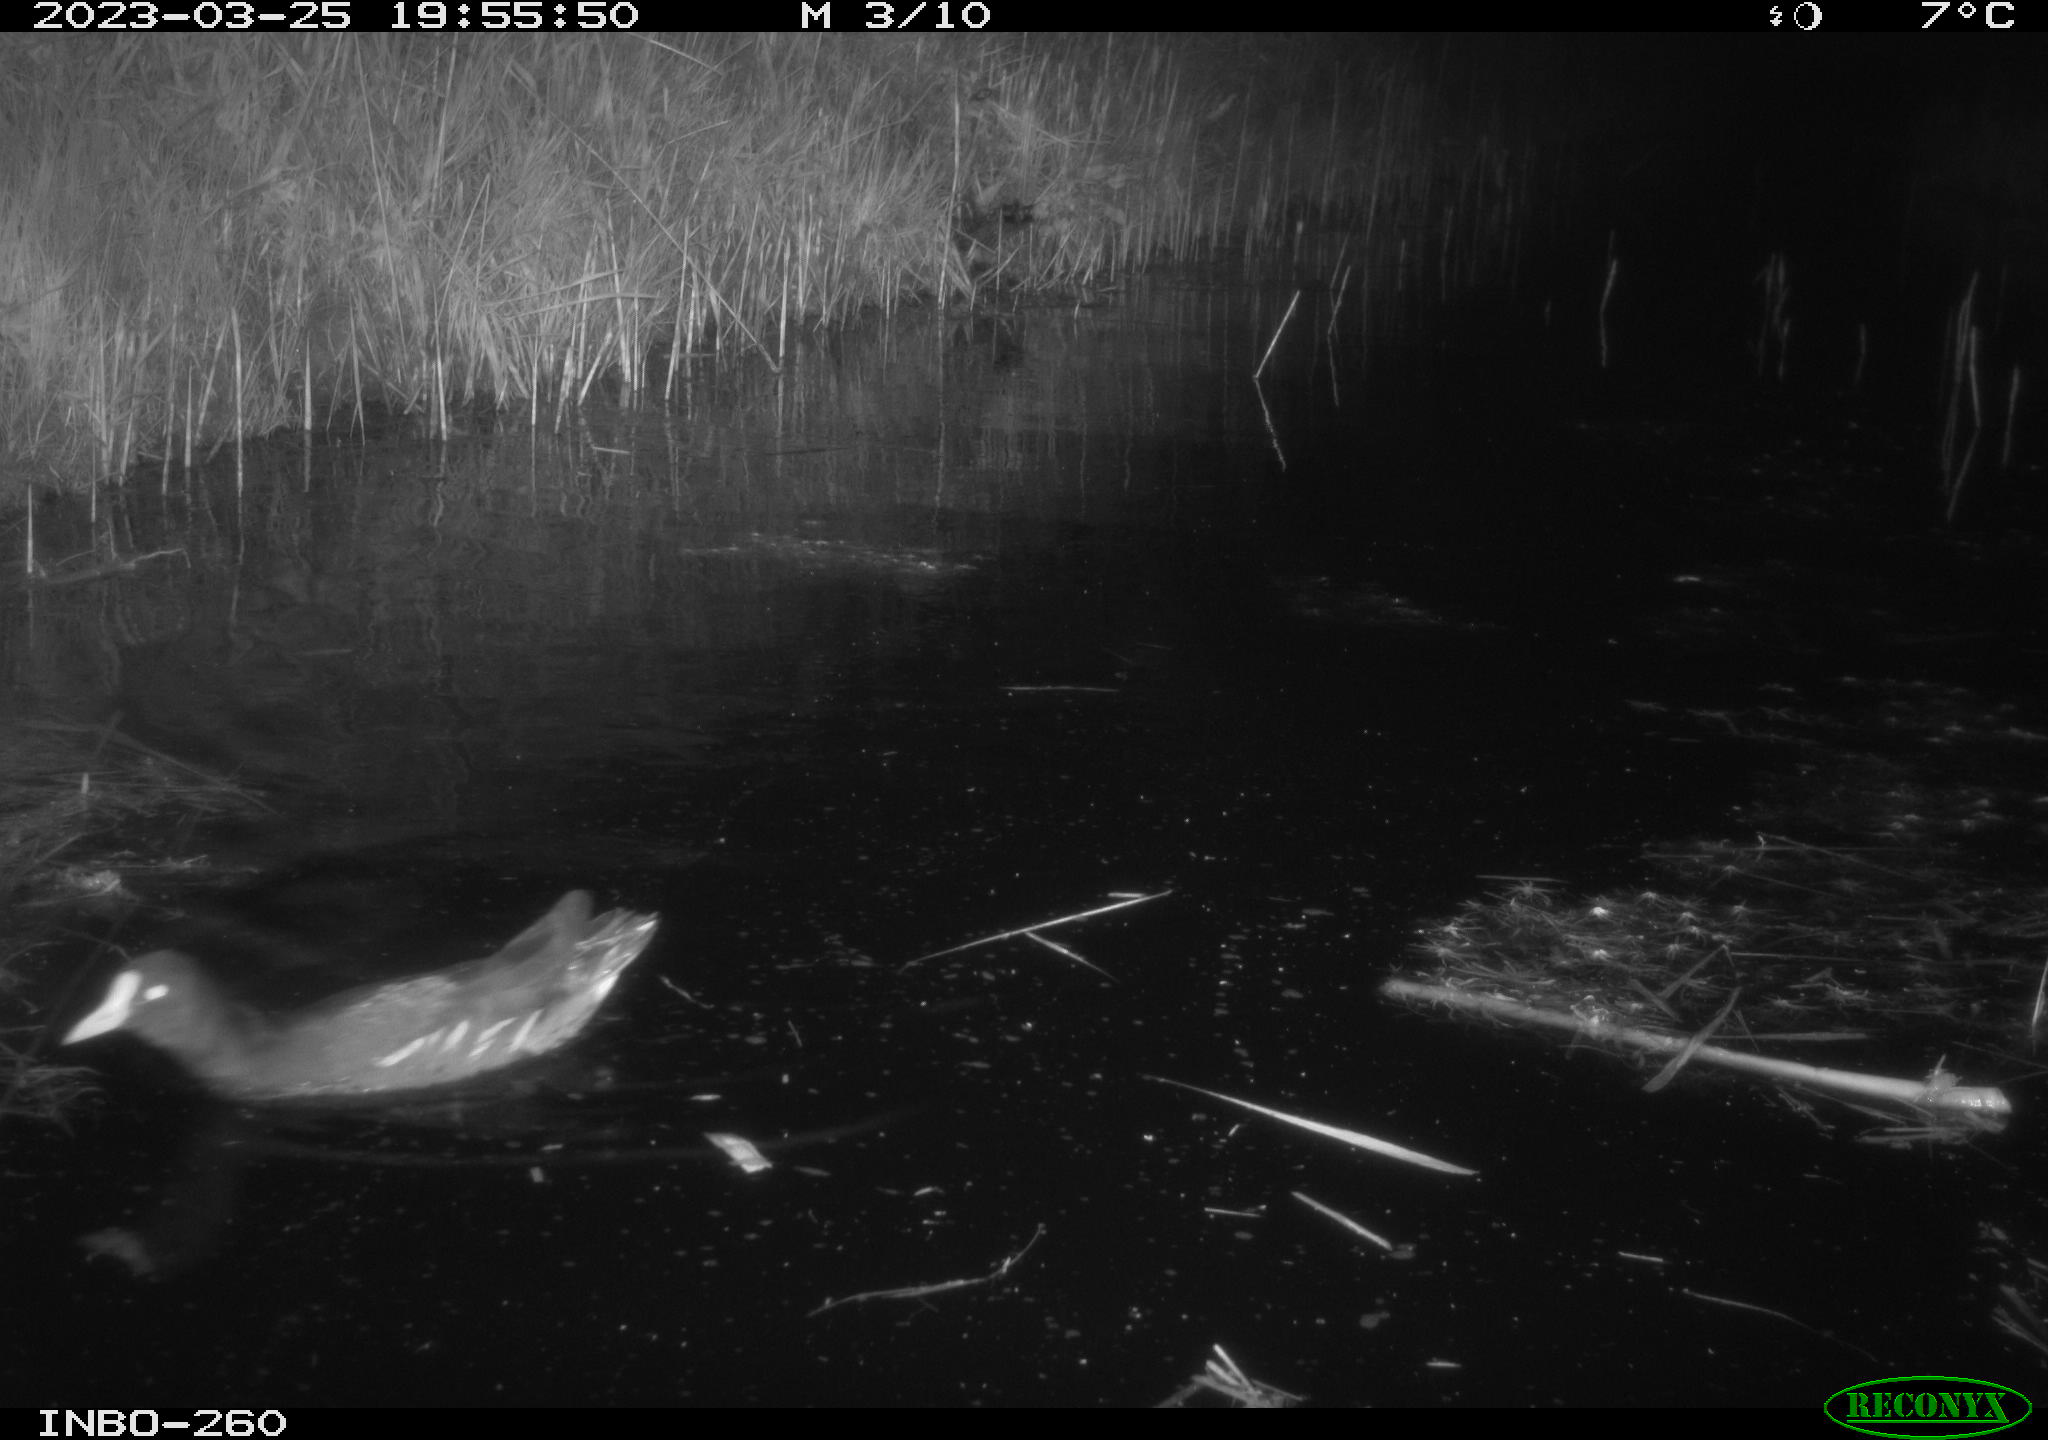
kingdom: Animalia
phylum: Chordata
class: Aves
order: Gruiformes
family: Rallidae
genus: Gallinula
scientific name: Gallinula chloropus
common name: Common moorhen
